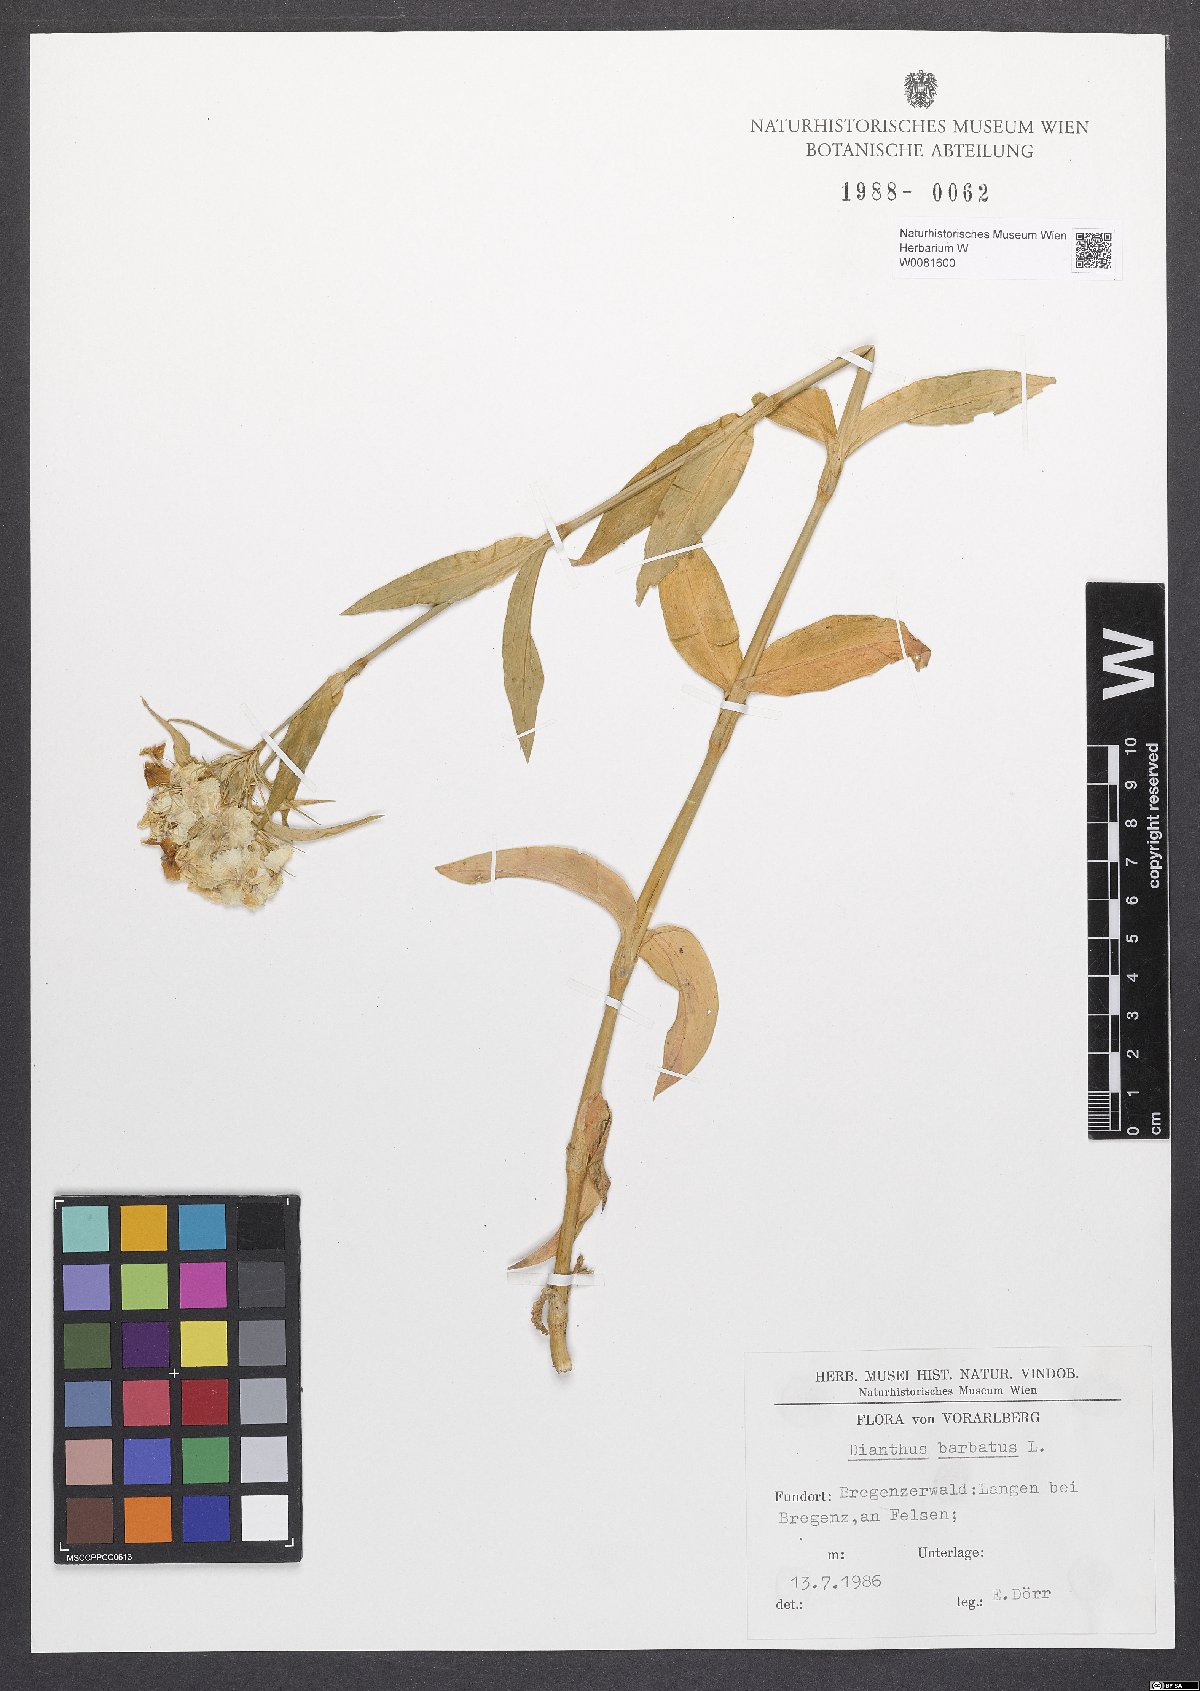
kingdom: Plantae
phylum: Tracheophyta
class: Magnoliopsida
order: Caryophyllales
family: Caryophyllaceae
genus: Dianthus
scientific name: Dianthus barbatus
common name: Sweet-william
